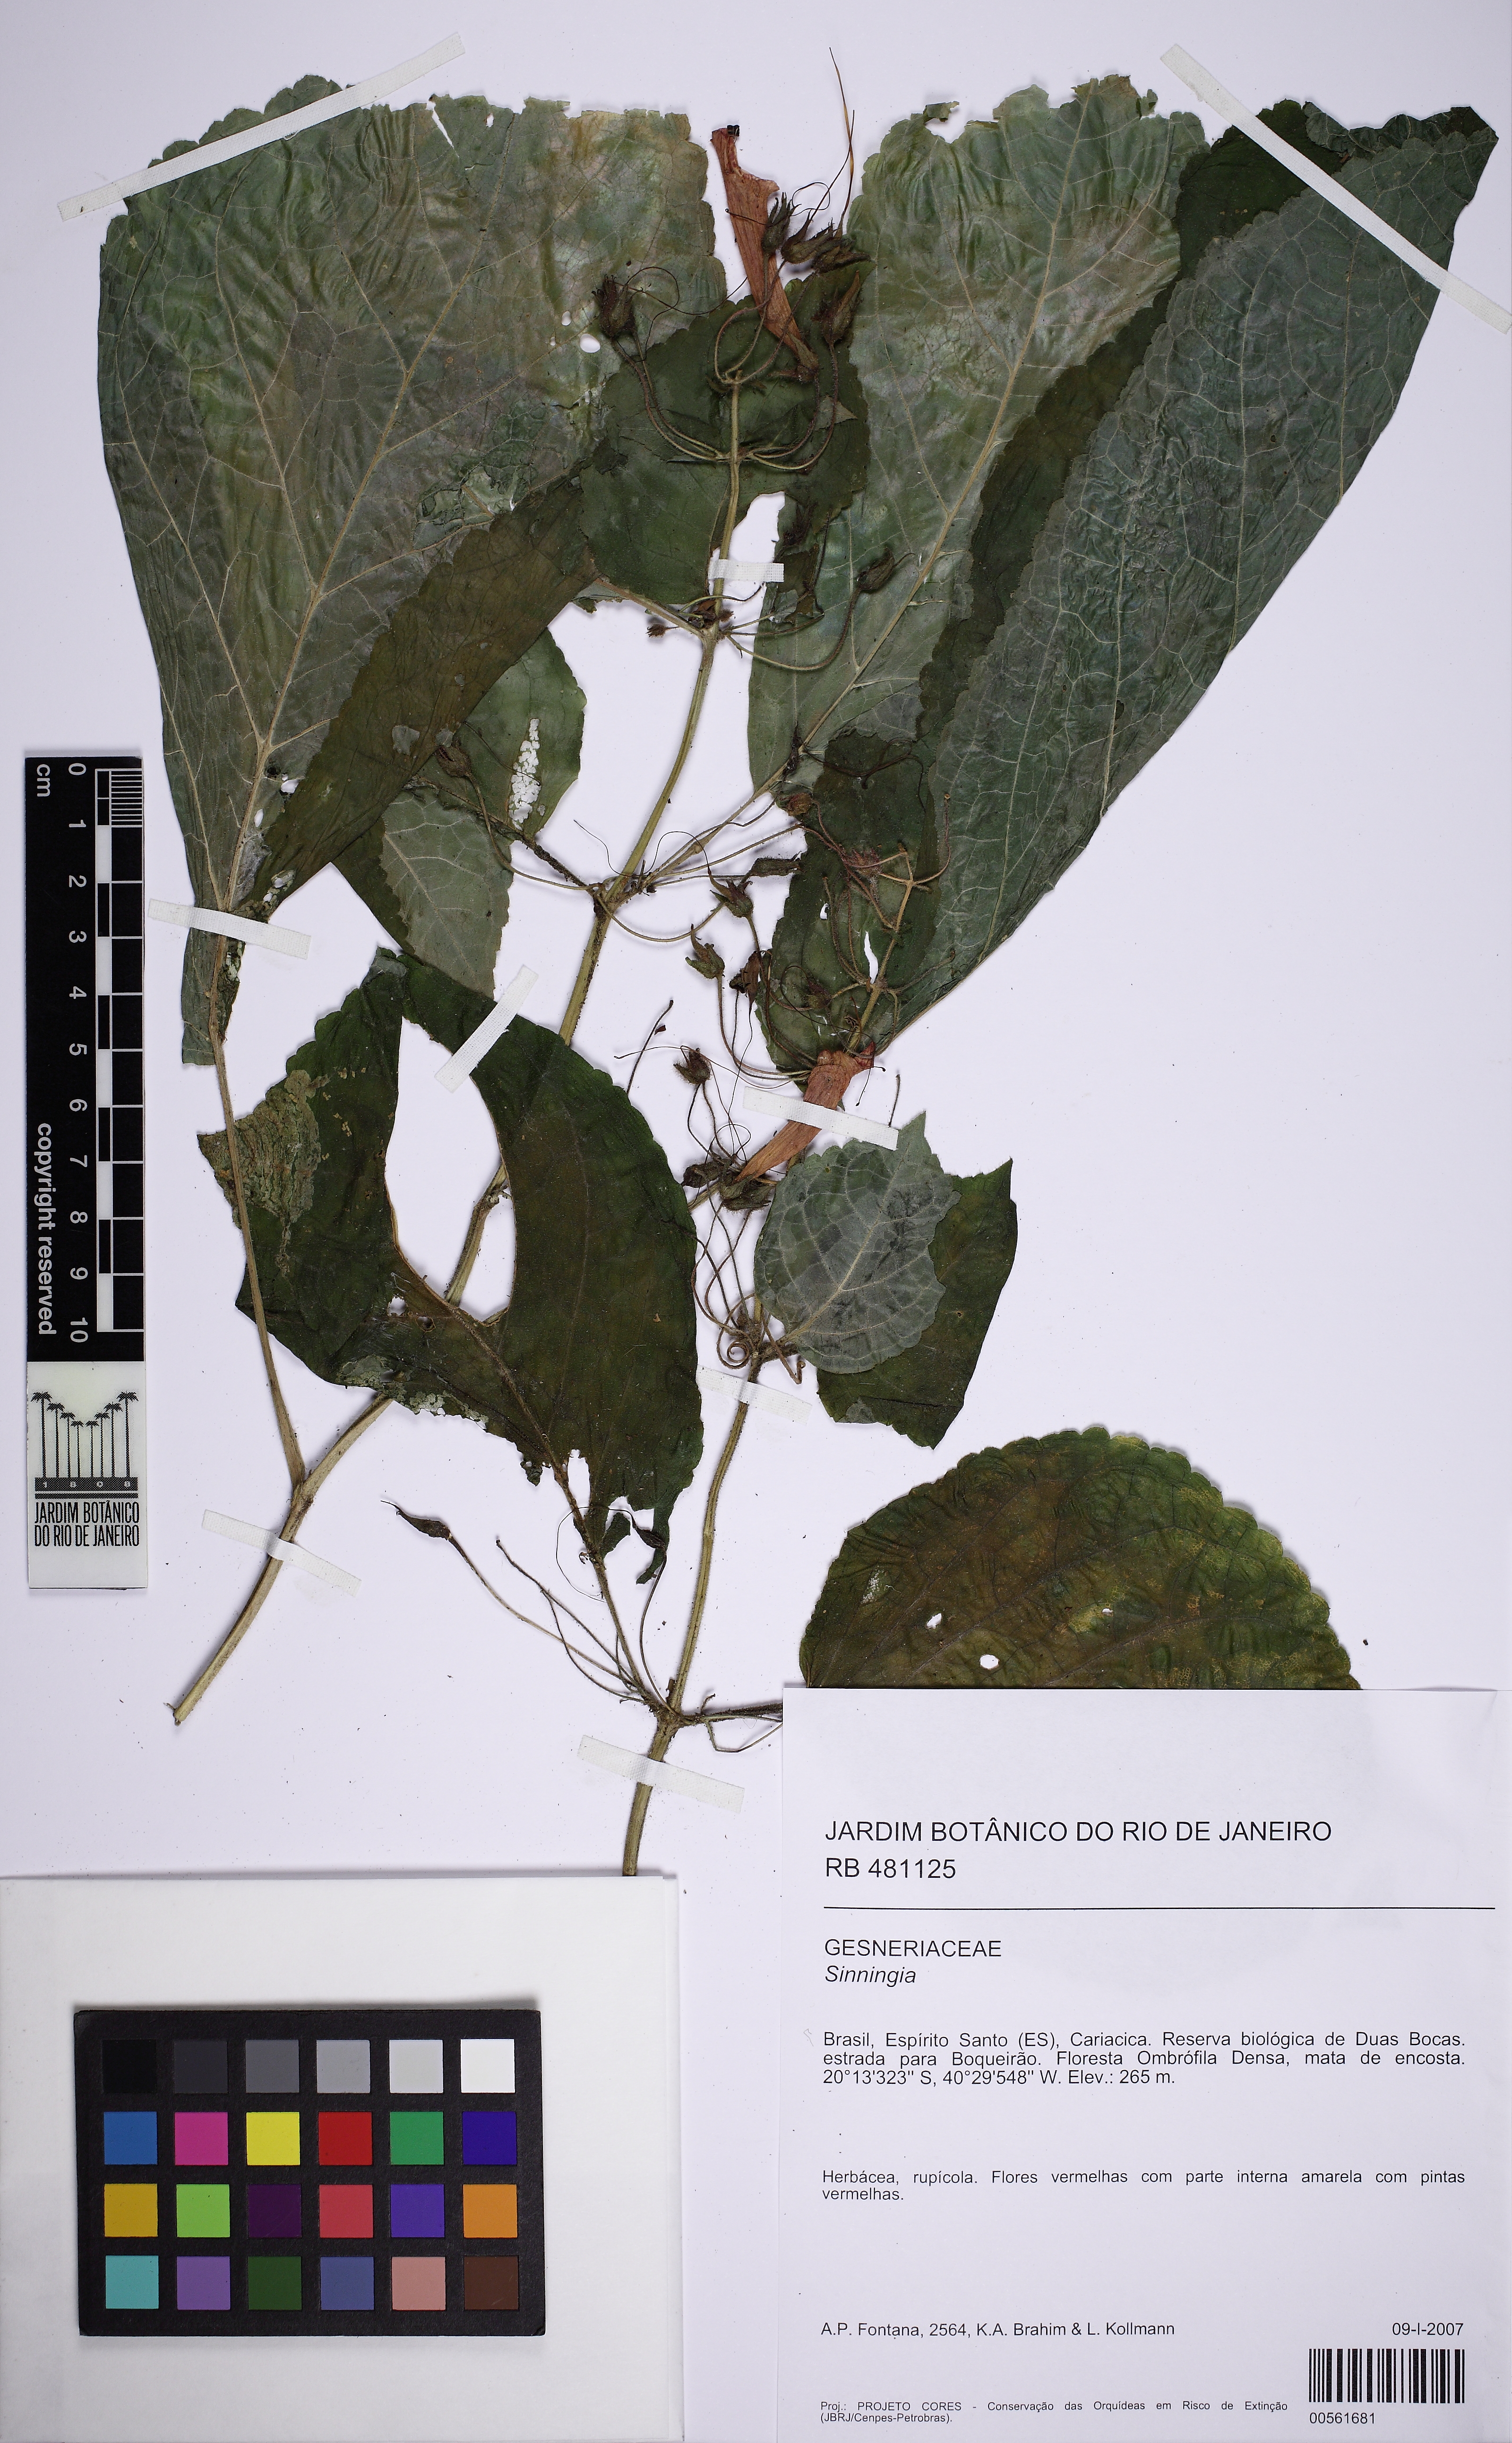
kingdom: Plantae
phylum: Tracheophyta
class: Magnoliopsida
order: Lamiales
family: Gesneriaceae
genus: Sinningia
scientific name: Sinningia warmingii
